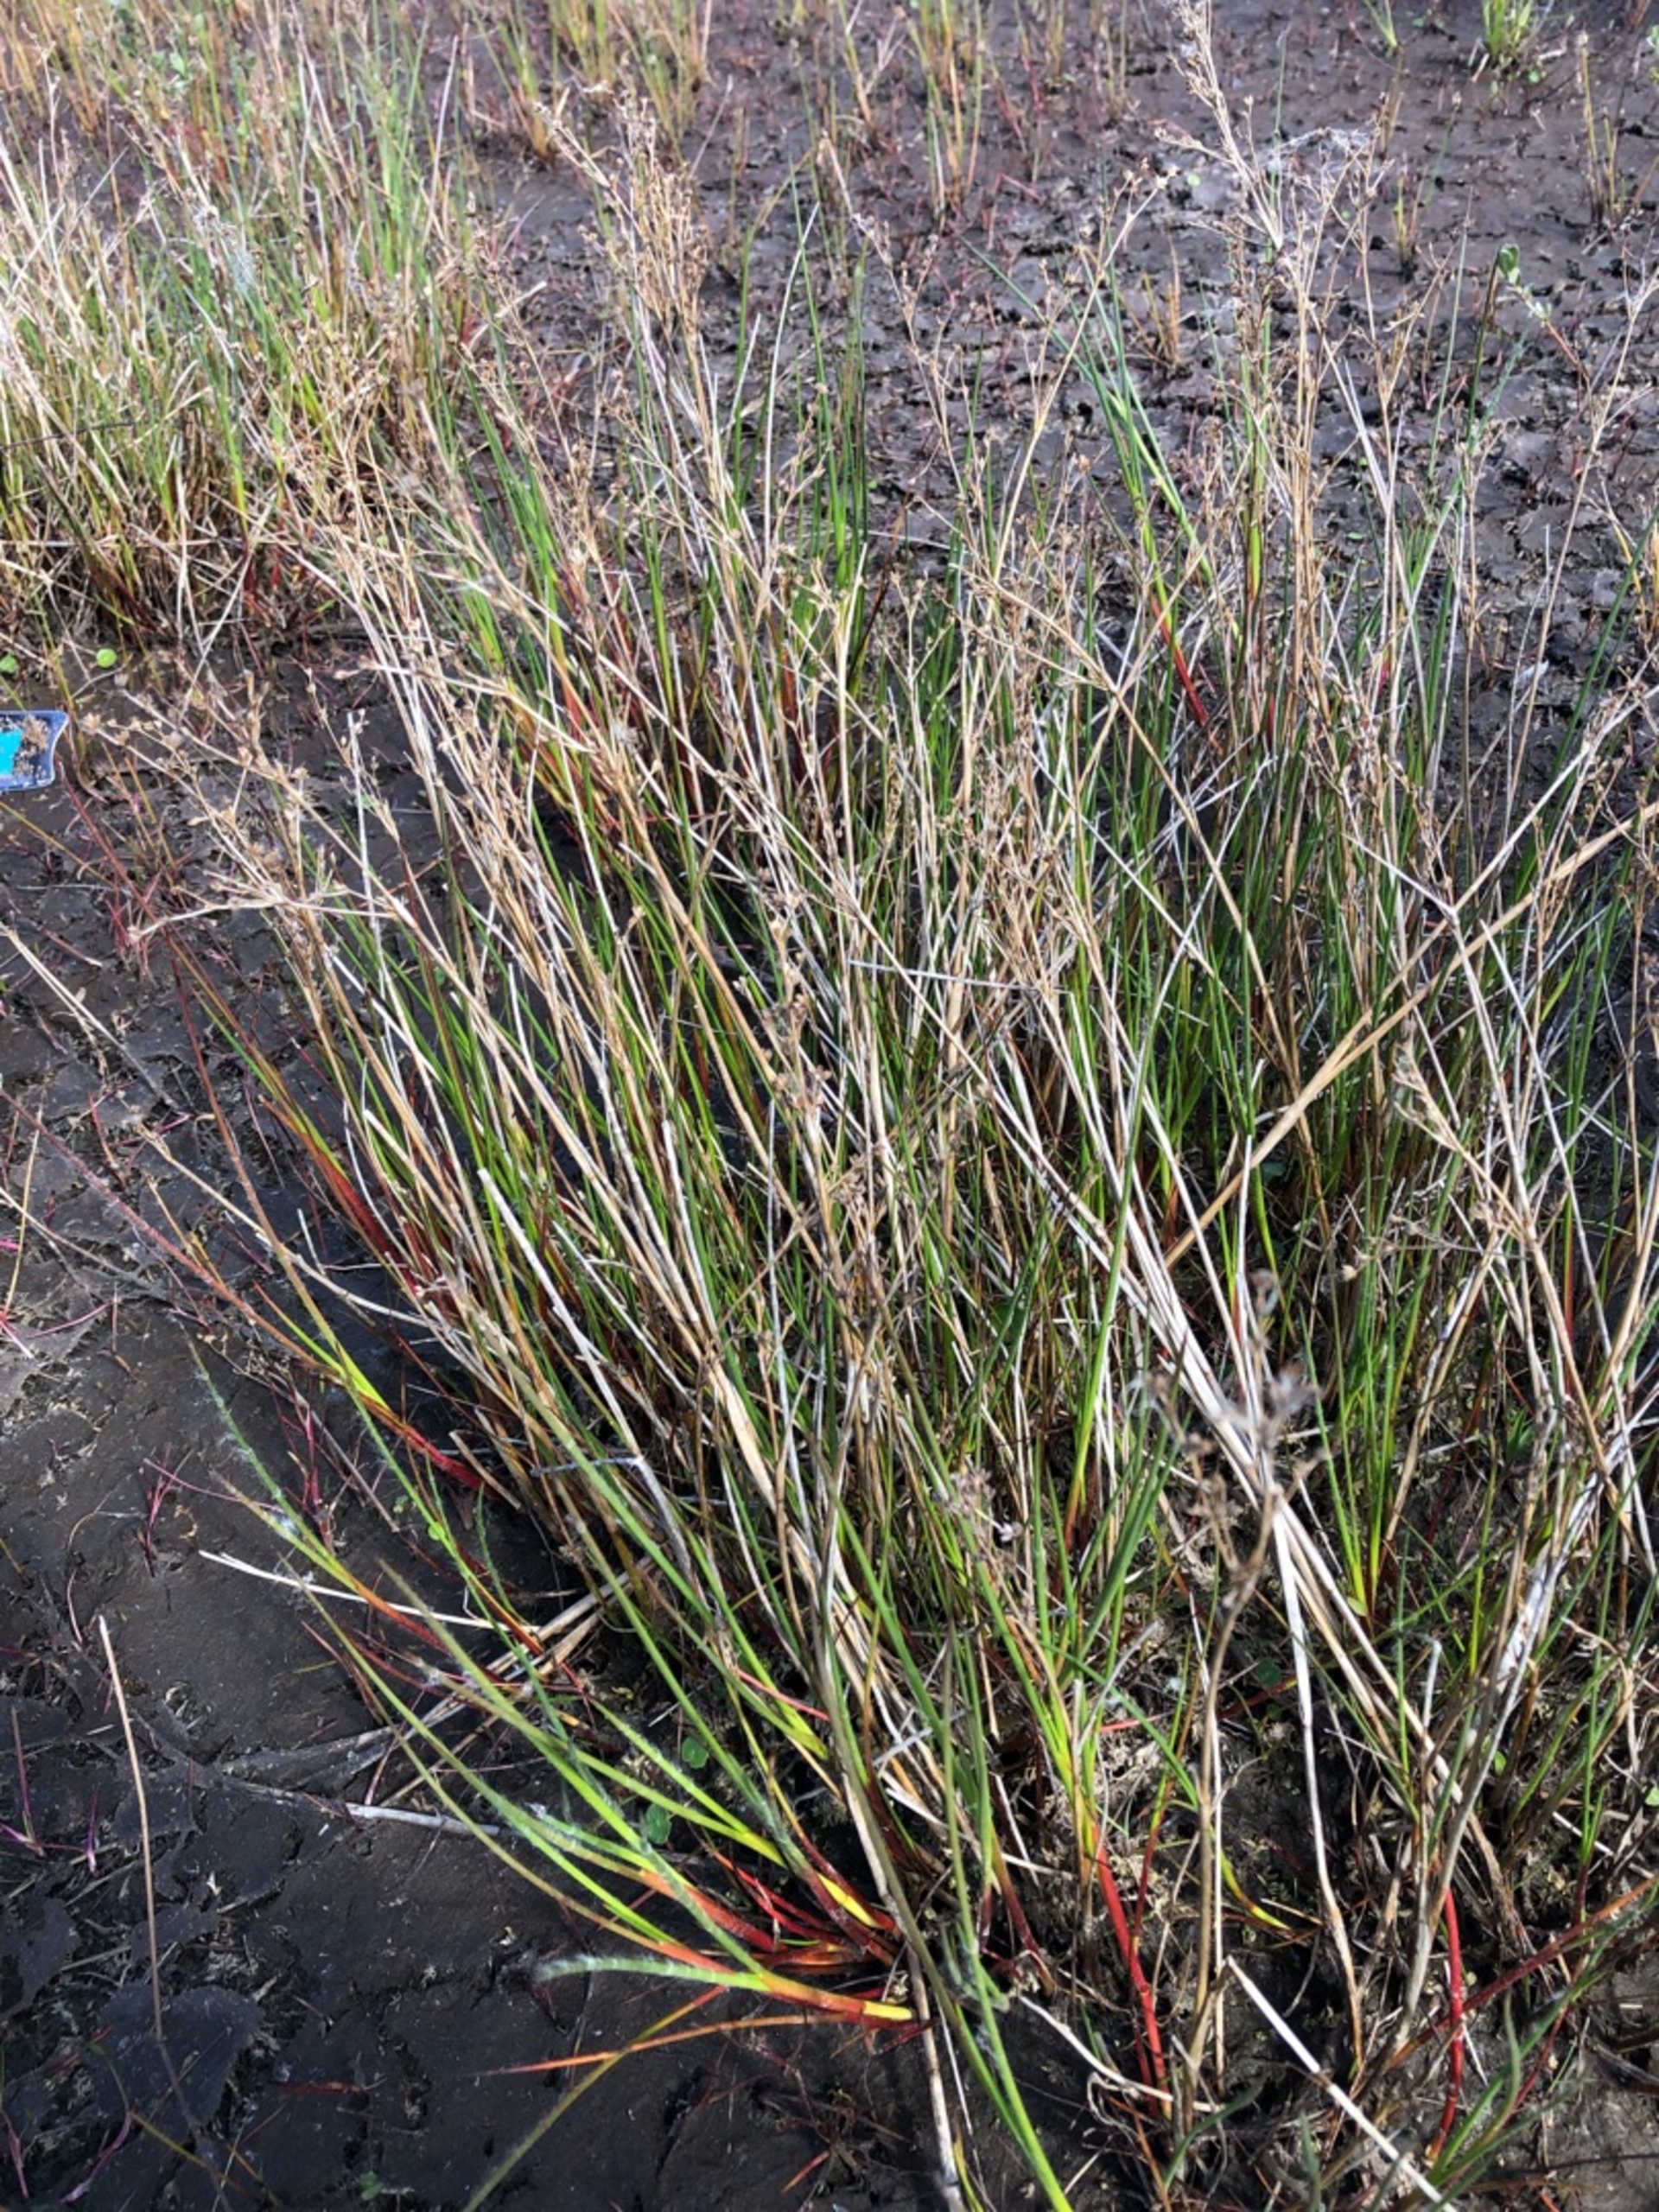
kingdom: Plantae
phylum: Tracheophyta
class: Liliopsida
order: Poales
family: Juncaceae
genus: Juncus
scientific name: Juncus
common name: Sivslægten
